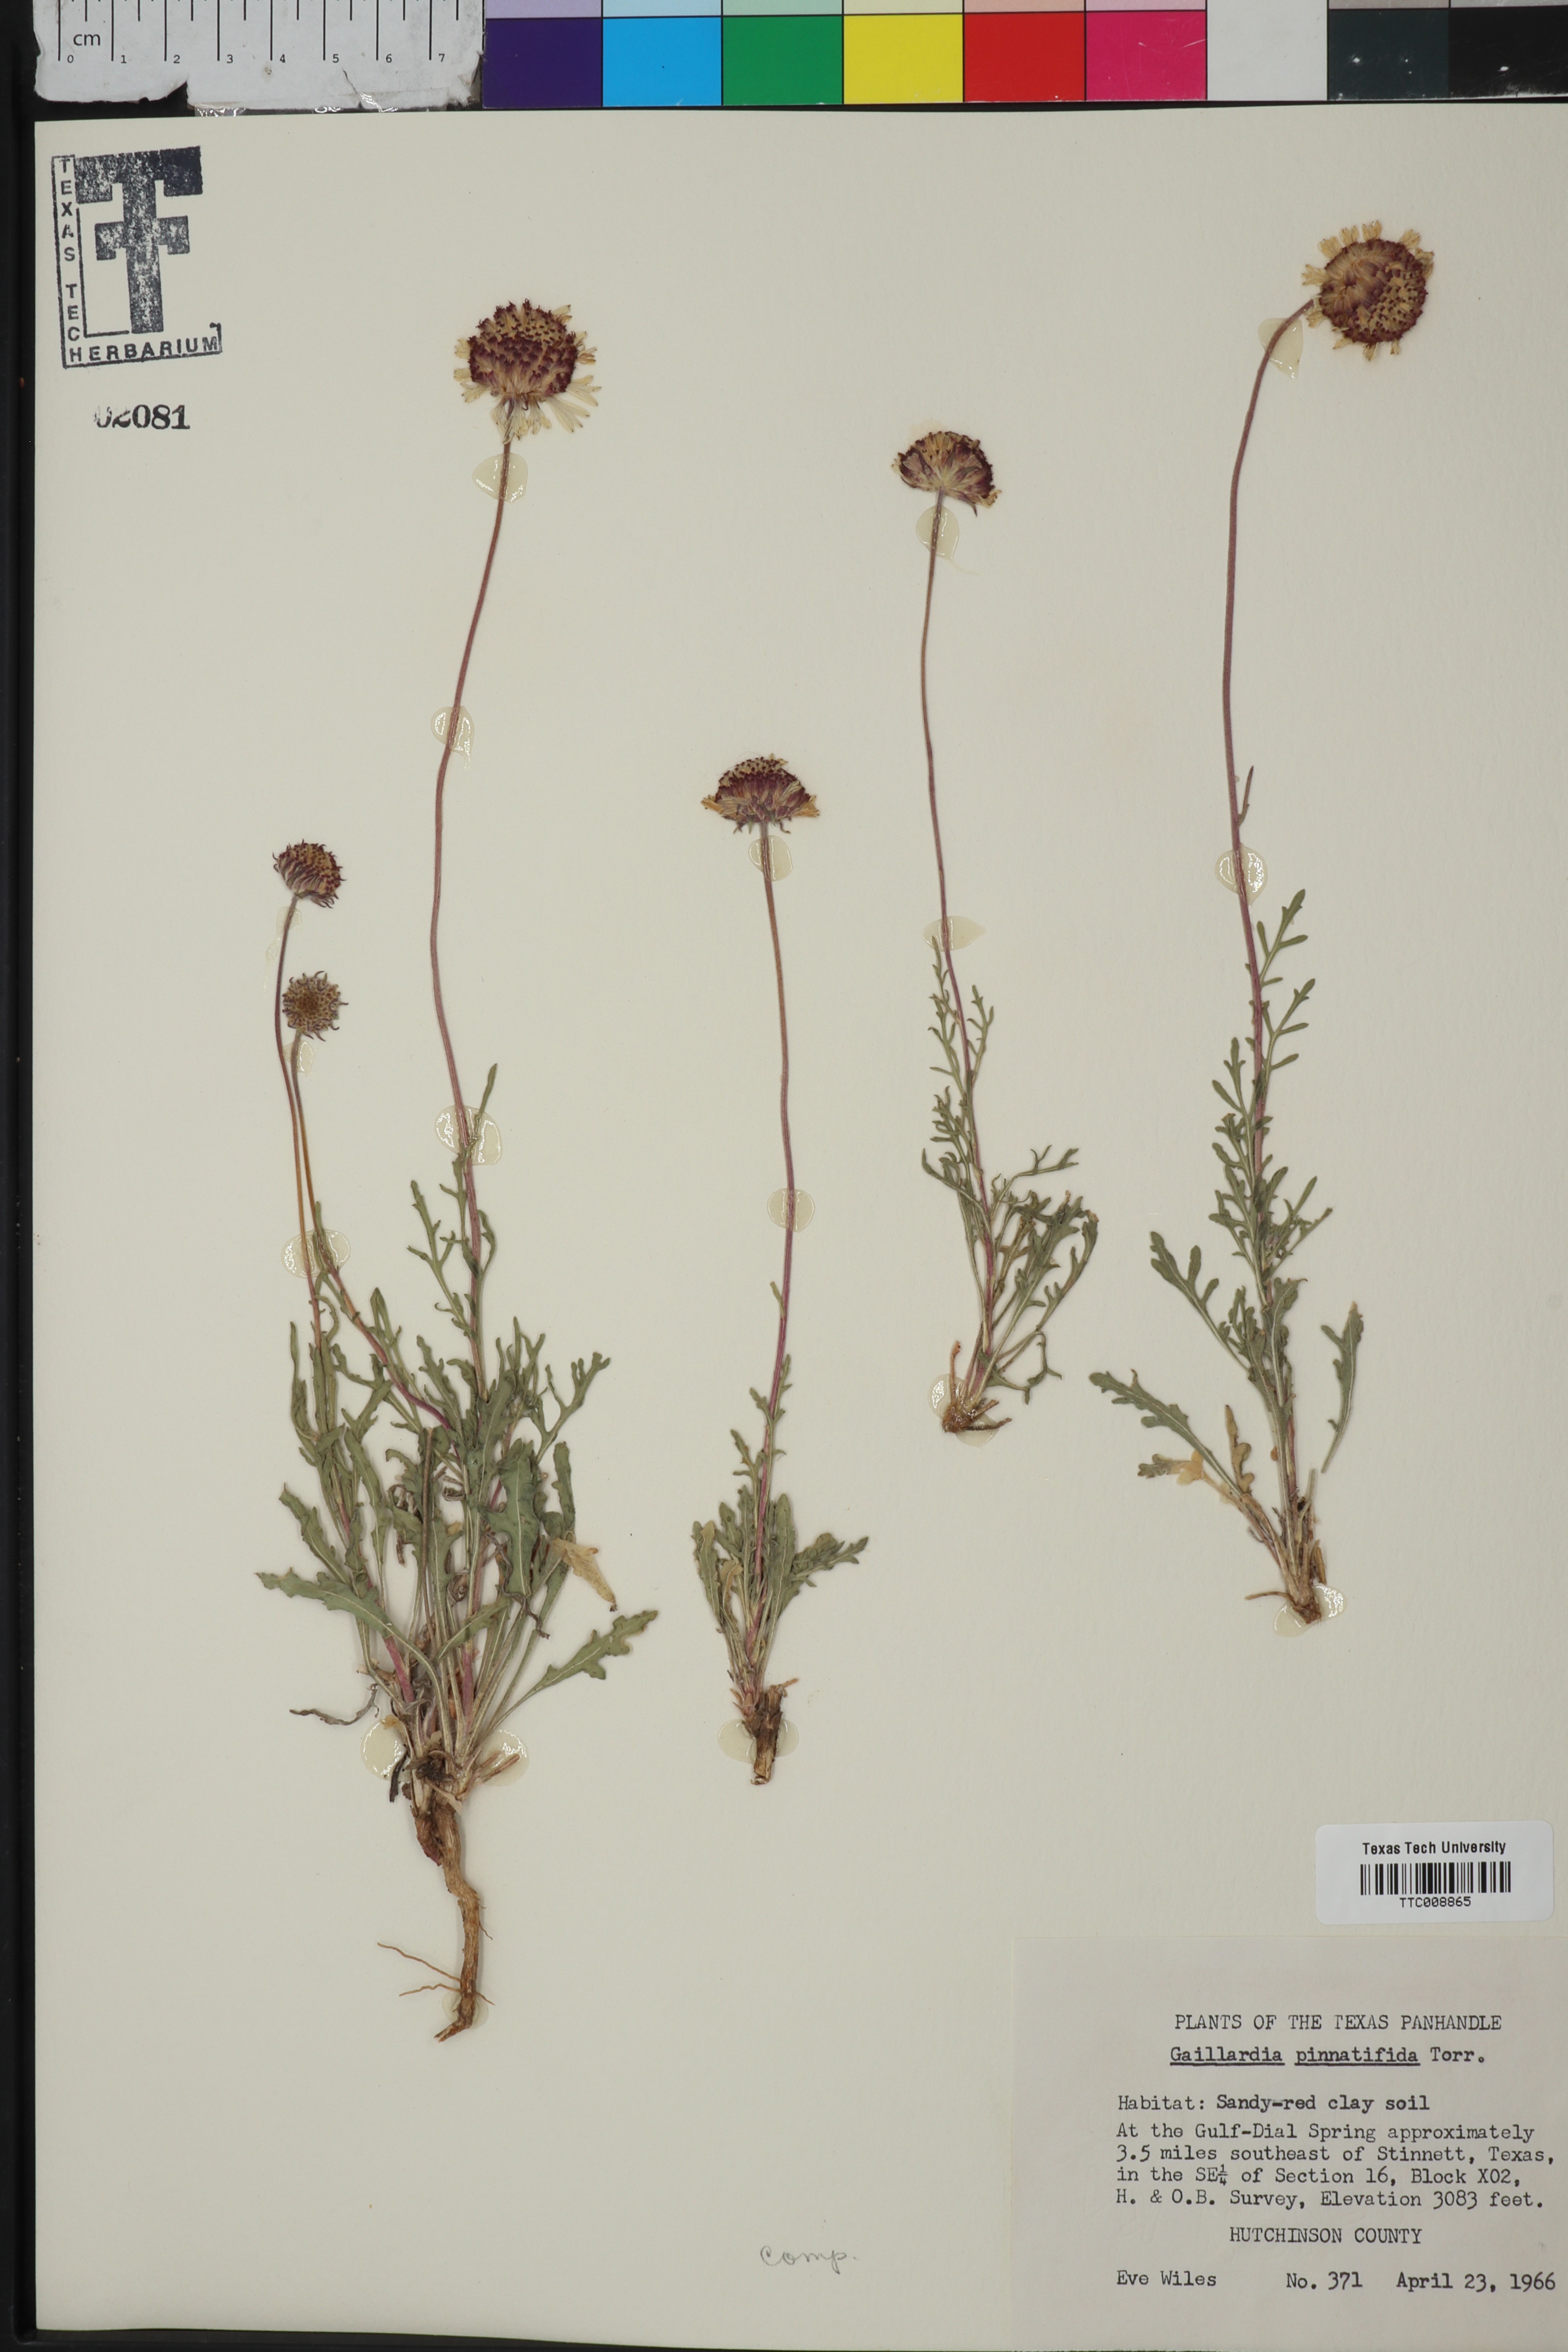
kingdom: Plantae
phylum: Tracheophyta
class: Magnoliopsida
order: Asterales
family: Asteraceae
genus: Gaillardia
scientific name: Gaillardia pinnatifida
